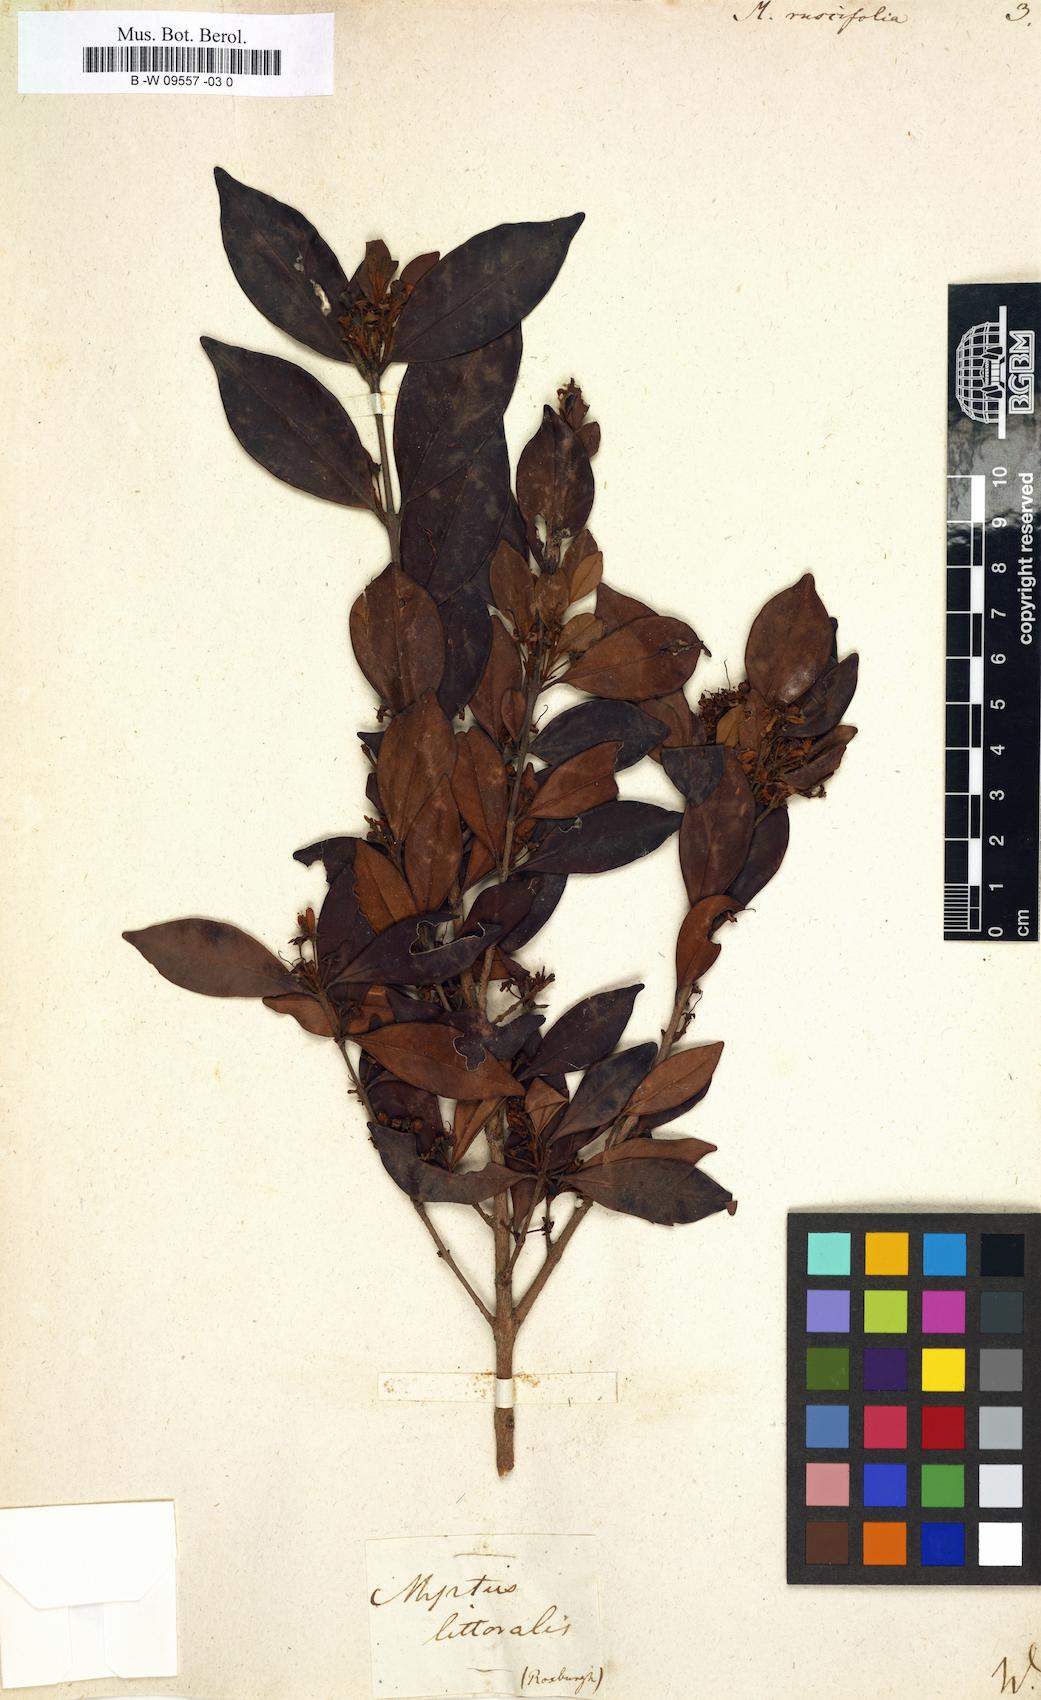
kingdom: Plantae
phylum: Tracheophyta
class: Magnoliopsida
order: Myrtales
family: Myrtaceae
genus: Myrtus
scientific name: Myrtus ruscifolia
